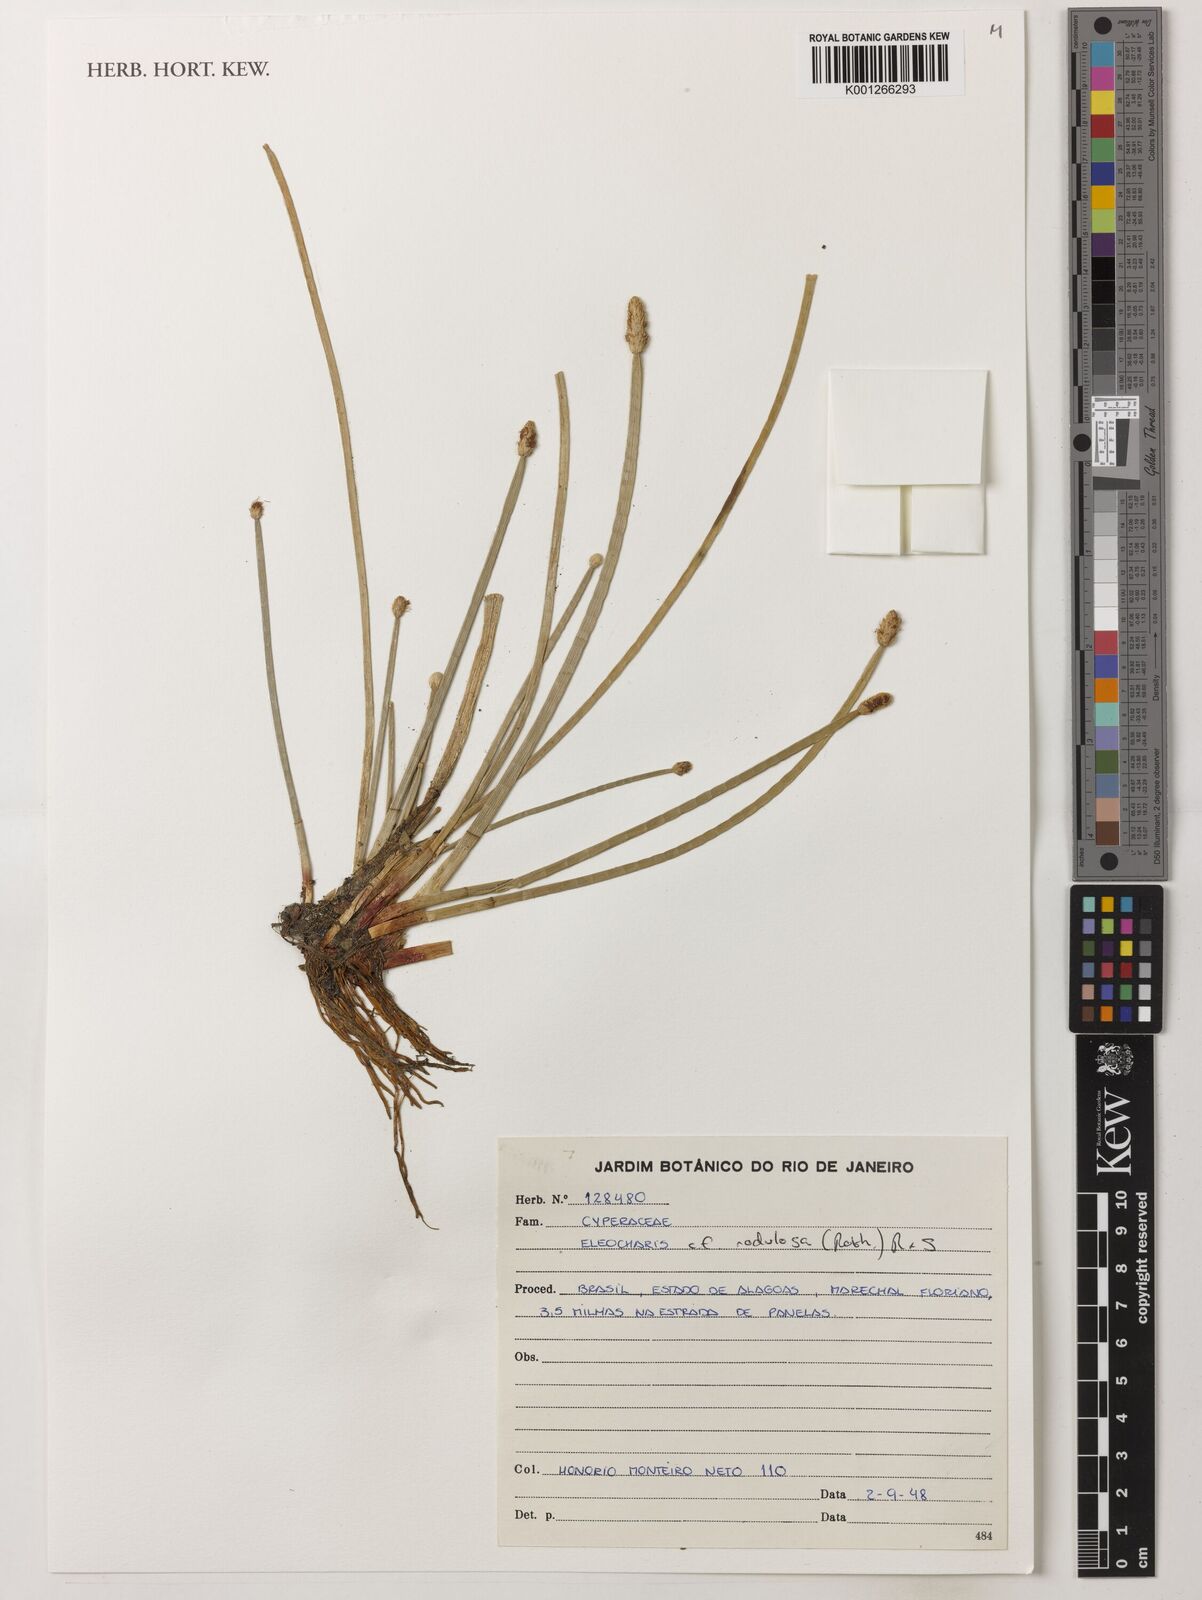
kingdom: Plantae
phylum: Tracheophyta
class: Liliopsida
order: Poales
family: Cyperaceae
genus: Eleocharis
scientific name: Eleocharis montana
